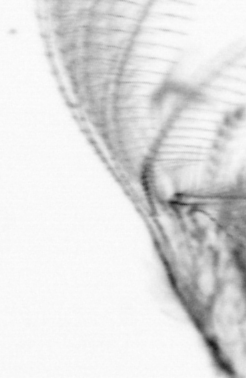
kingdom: Animalia
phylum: Arthropoda
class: Maxillopoda
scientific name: Maxillopoda
